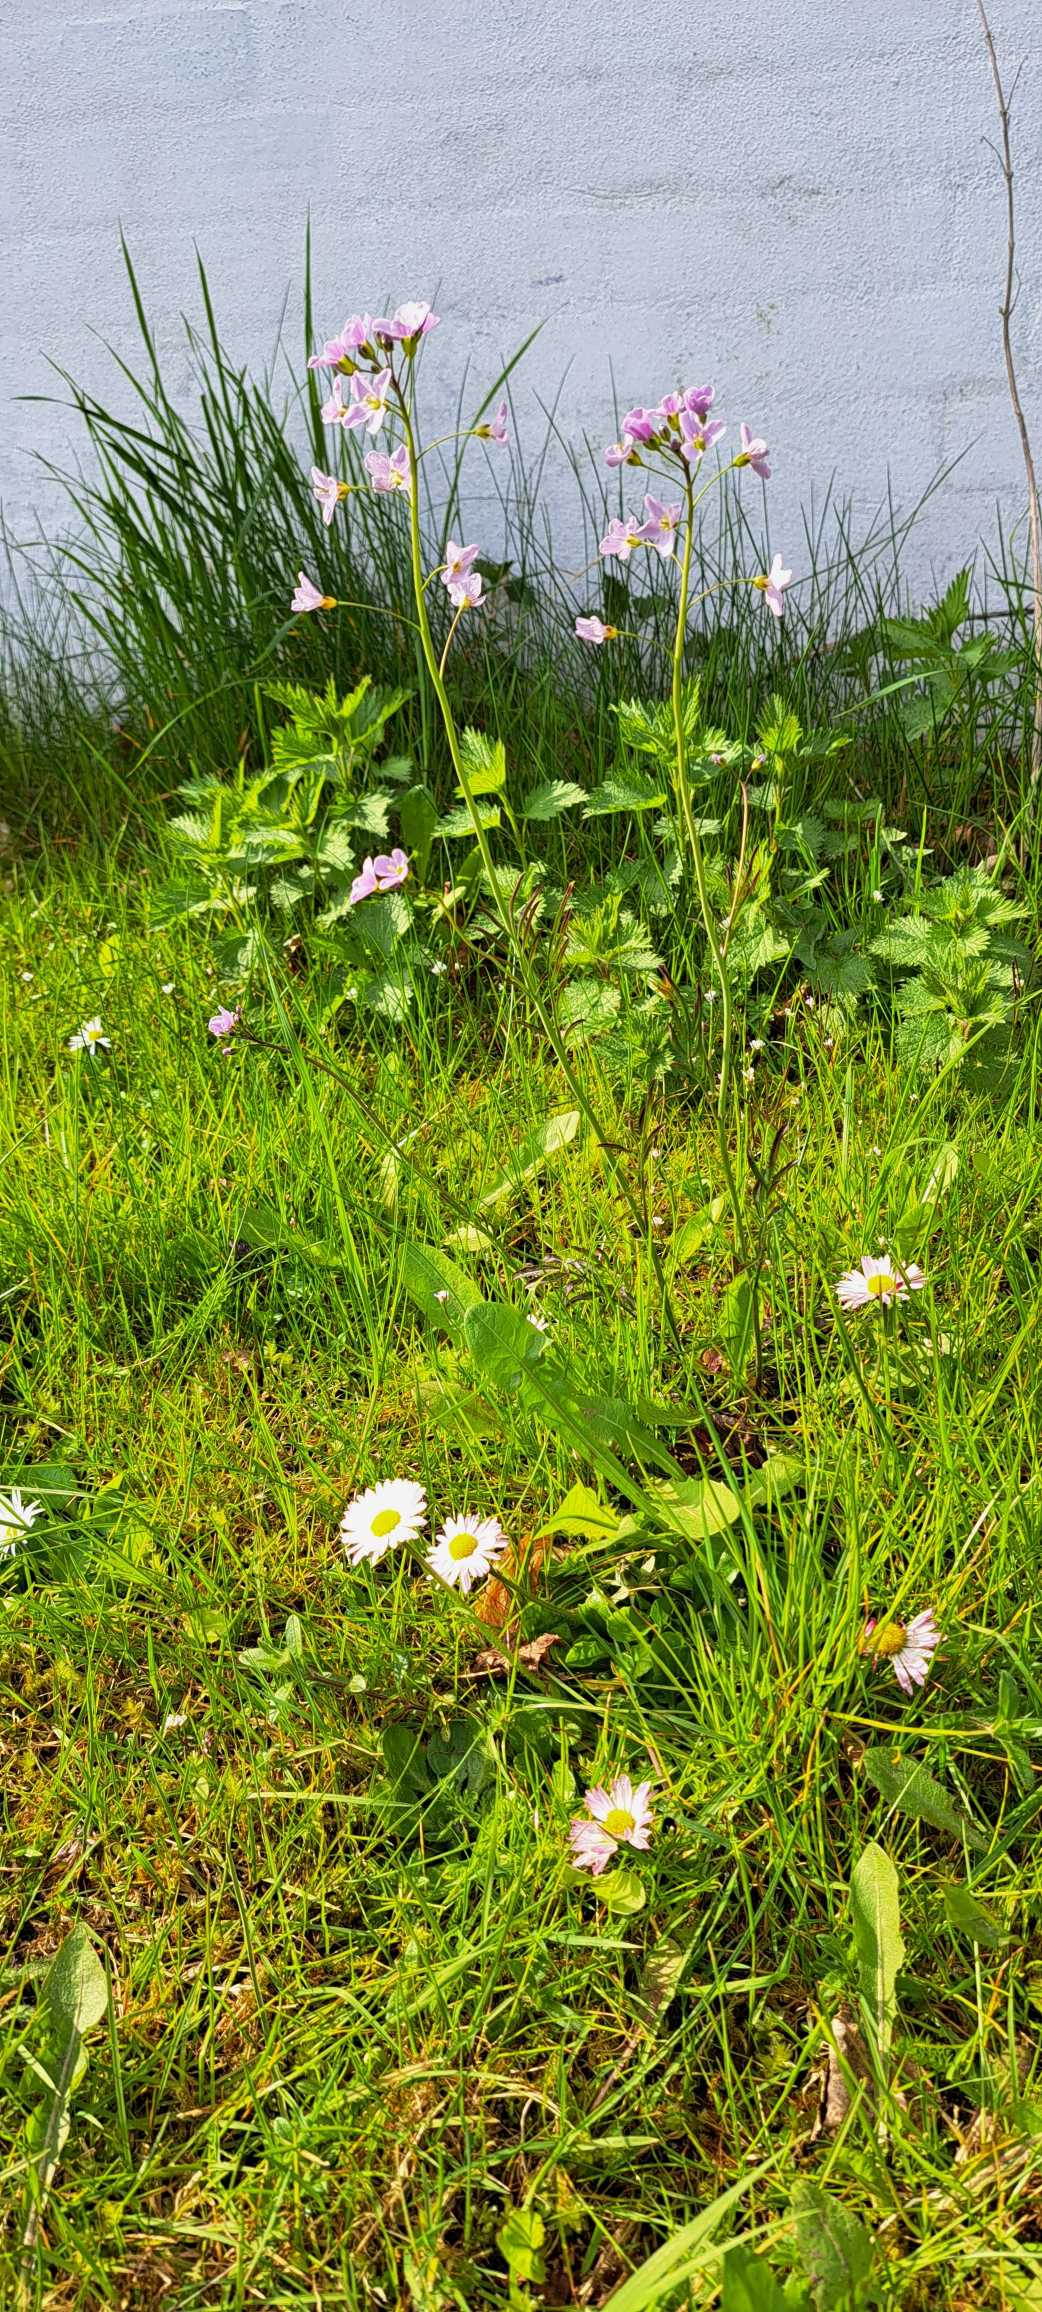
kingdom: Plantae
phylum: Tracheophyta
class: Magnoliopsida
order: Brassicales
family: Brassicaceae
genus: Cardamine
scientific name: Cardamine pratensis
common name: Engkarse
